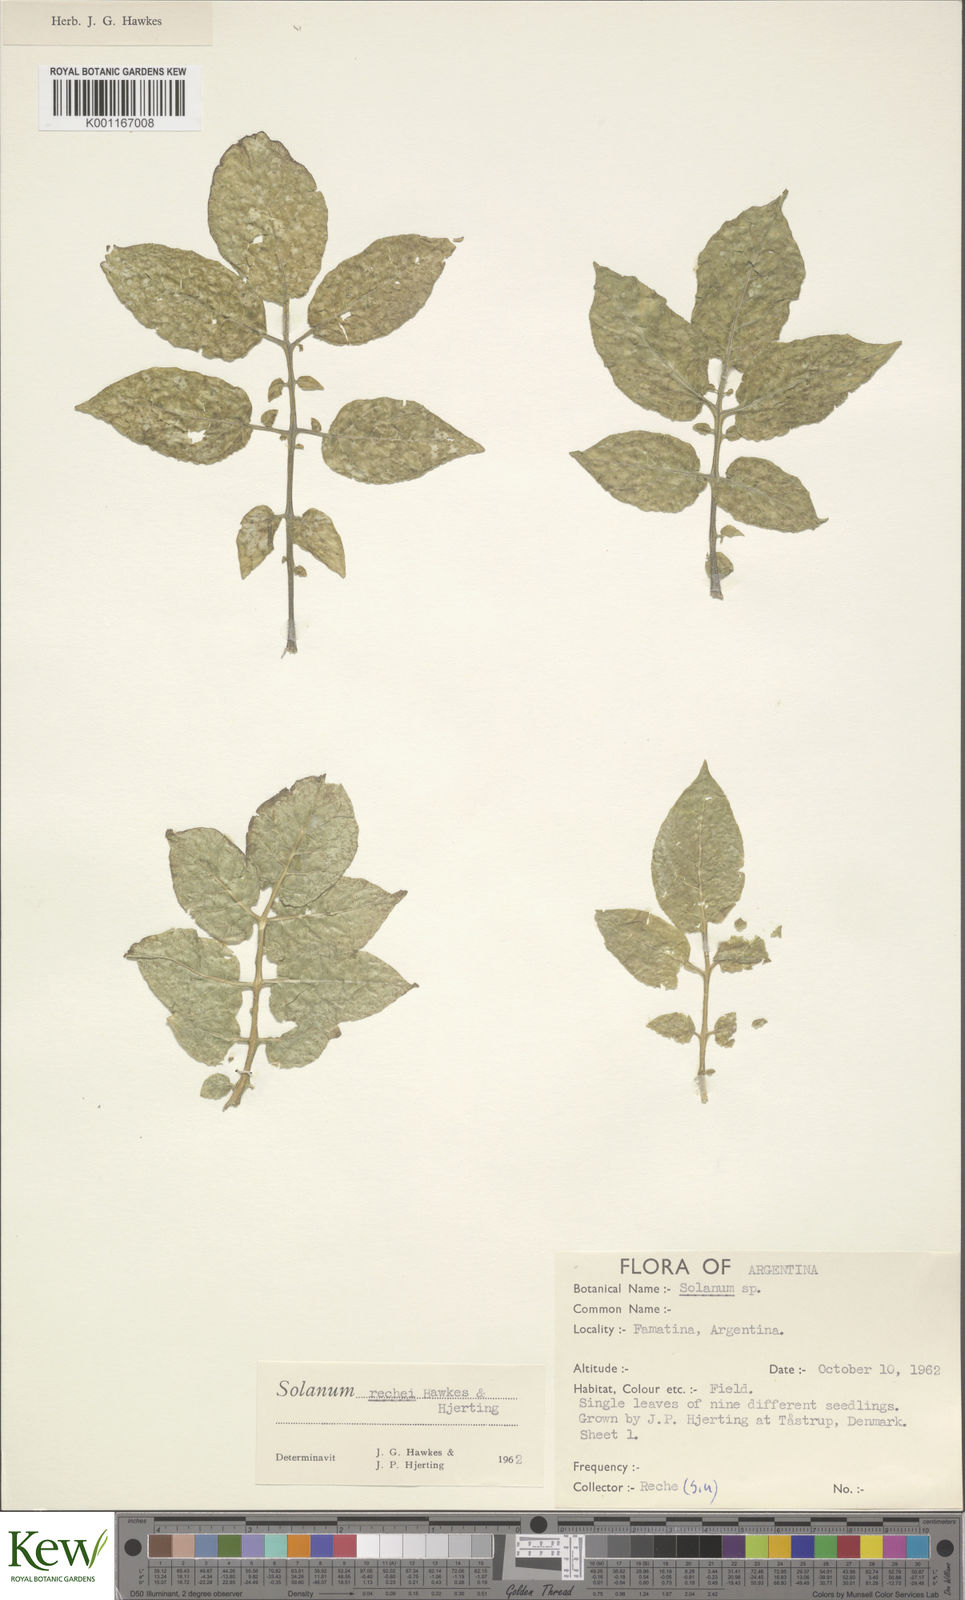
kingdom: Plantae
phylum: Tracheophyta
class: Magnoliopsida
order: Solanales
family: Solanaceae
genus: Solanum
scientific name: Solanum rechei
